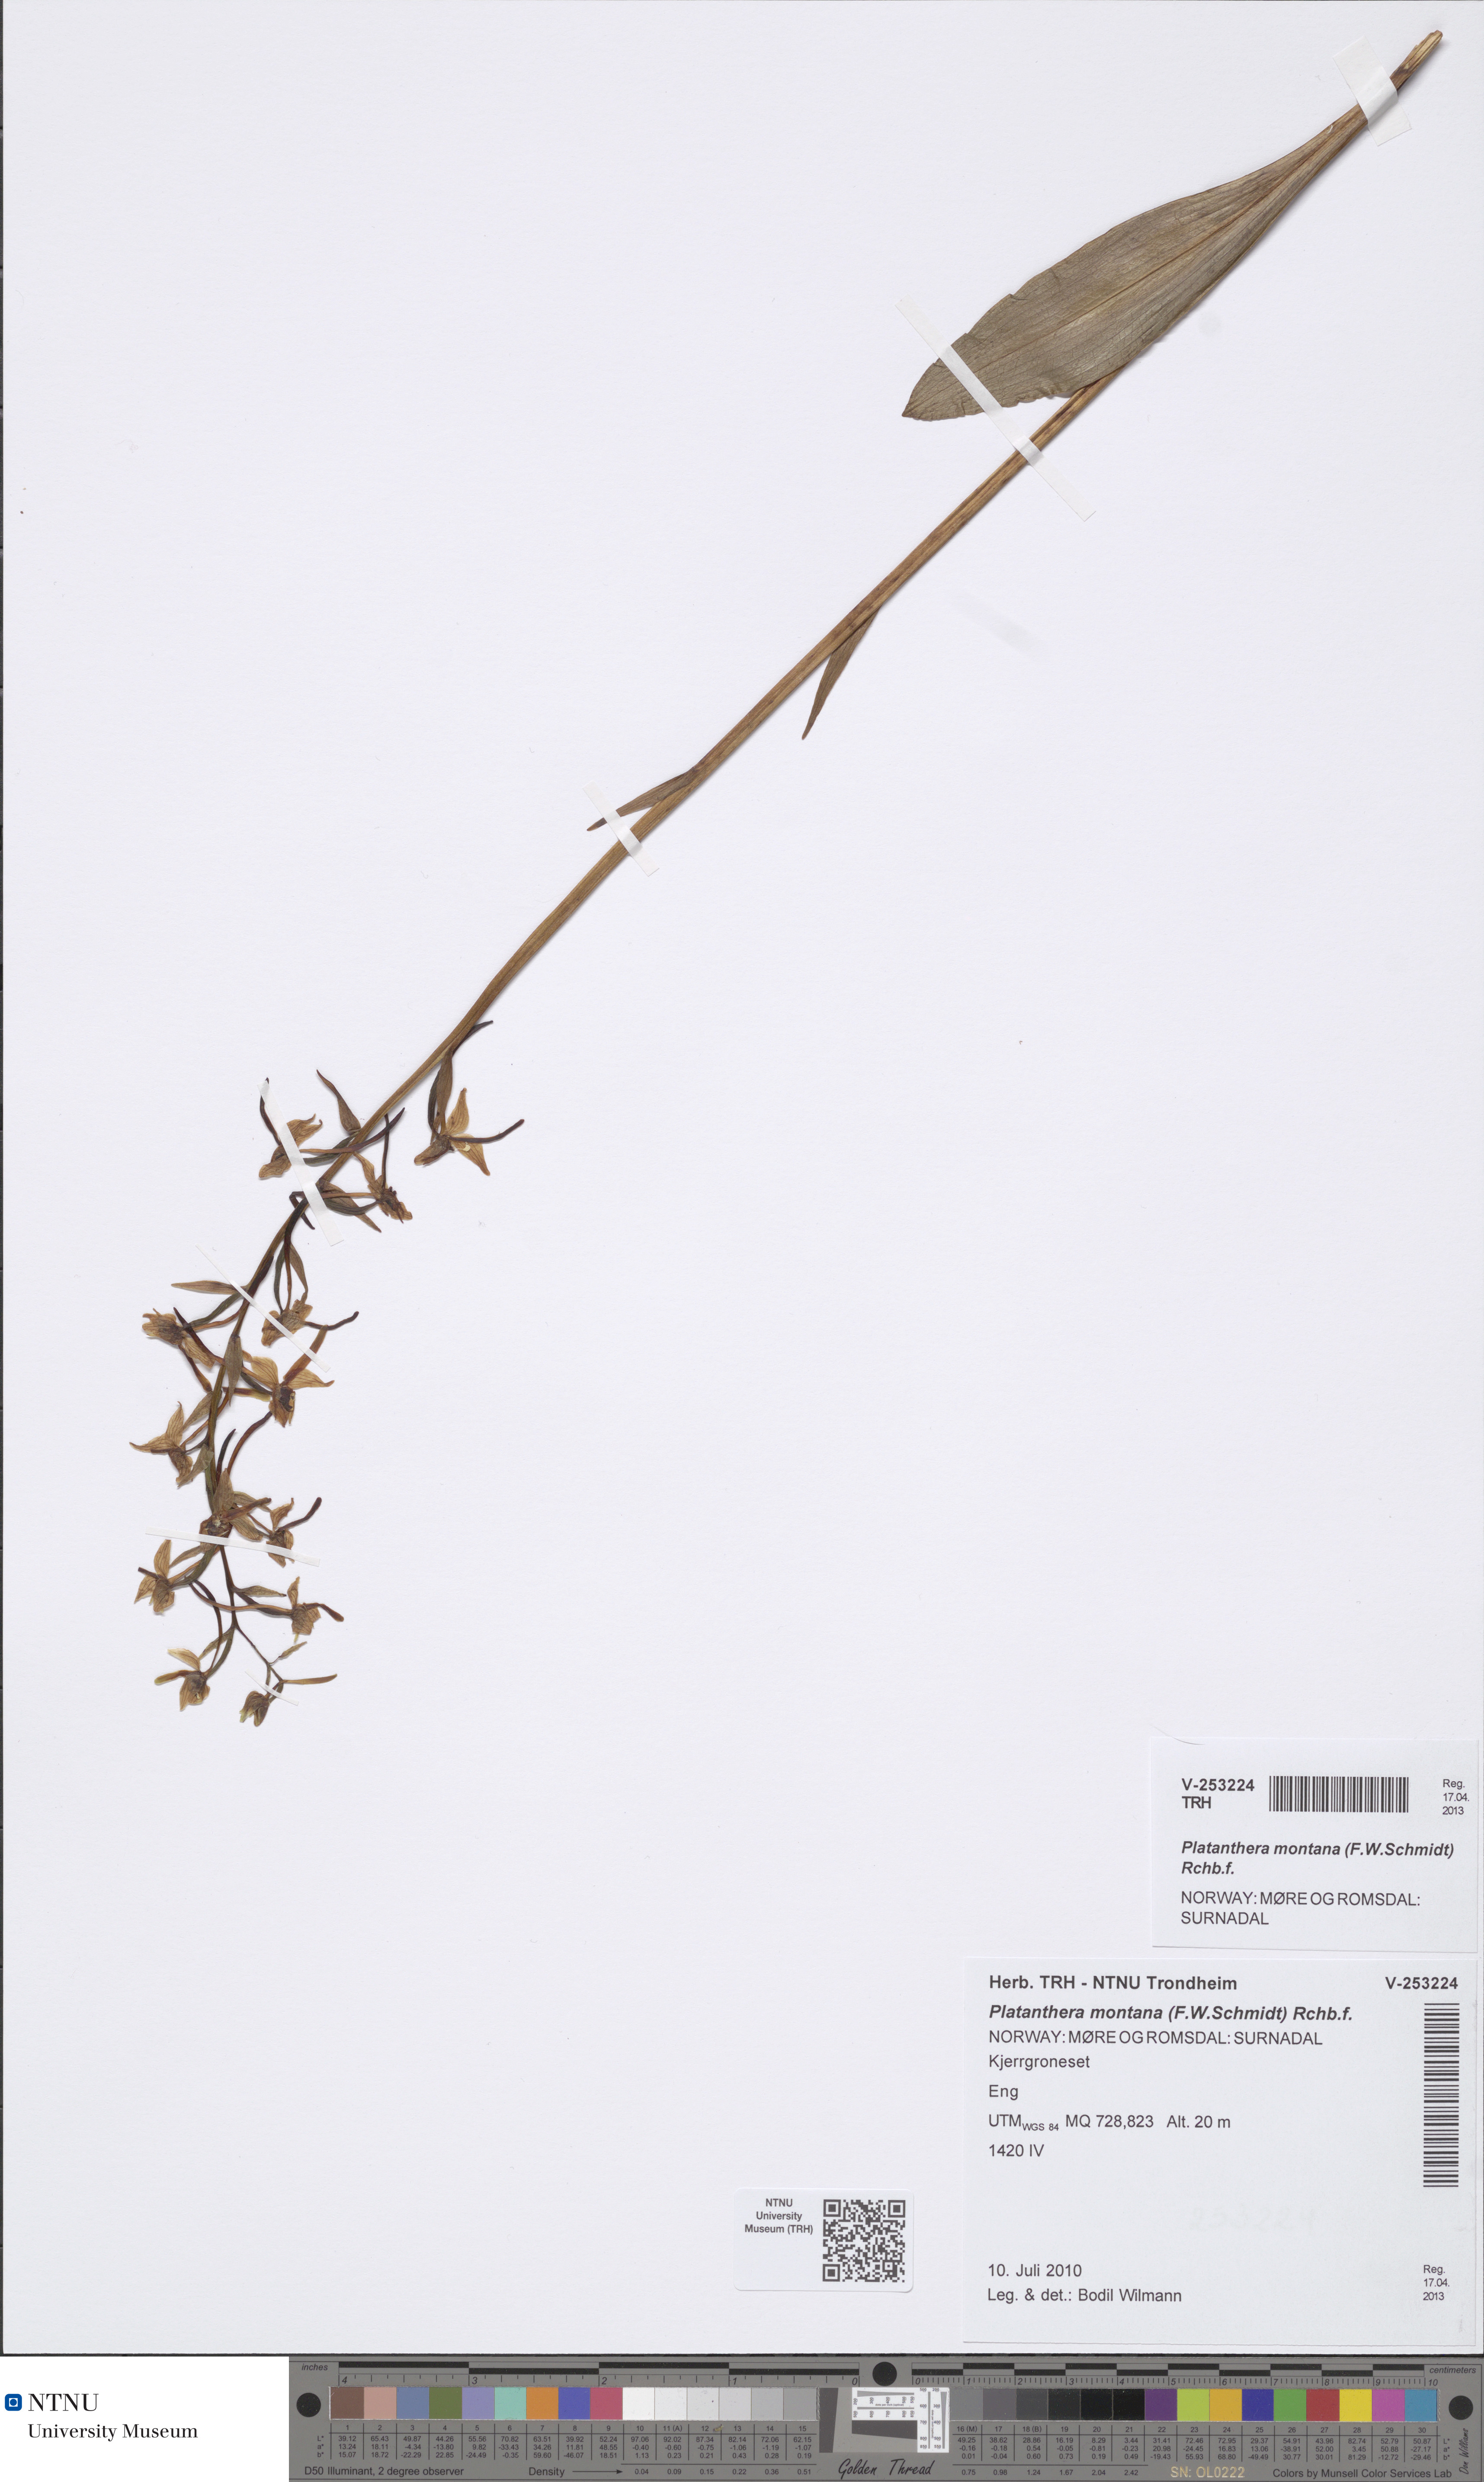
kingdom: Plantae
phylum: Tracheophyta
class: Liliopsida
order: Asparagales
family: Orchidaceae
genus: Platanthera
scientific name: Platanthera chlorantha
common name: Greater butterfly-orchid
